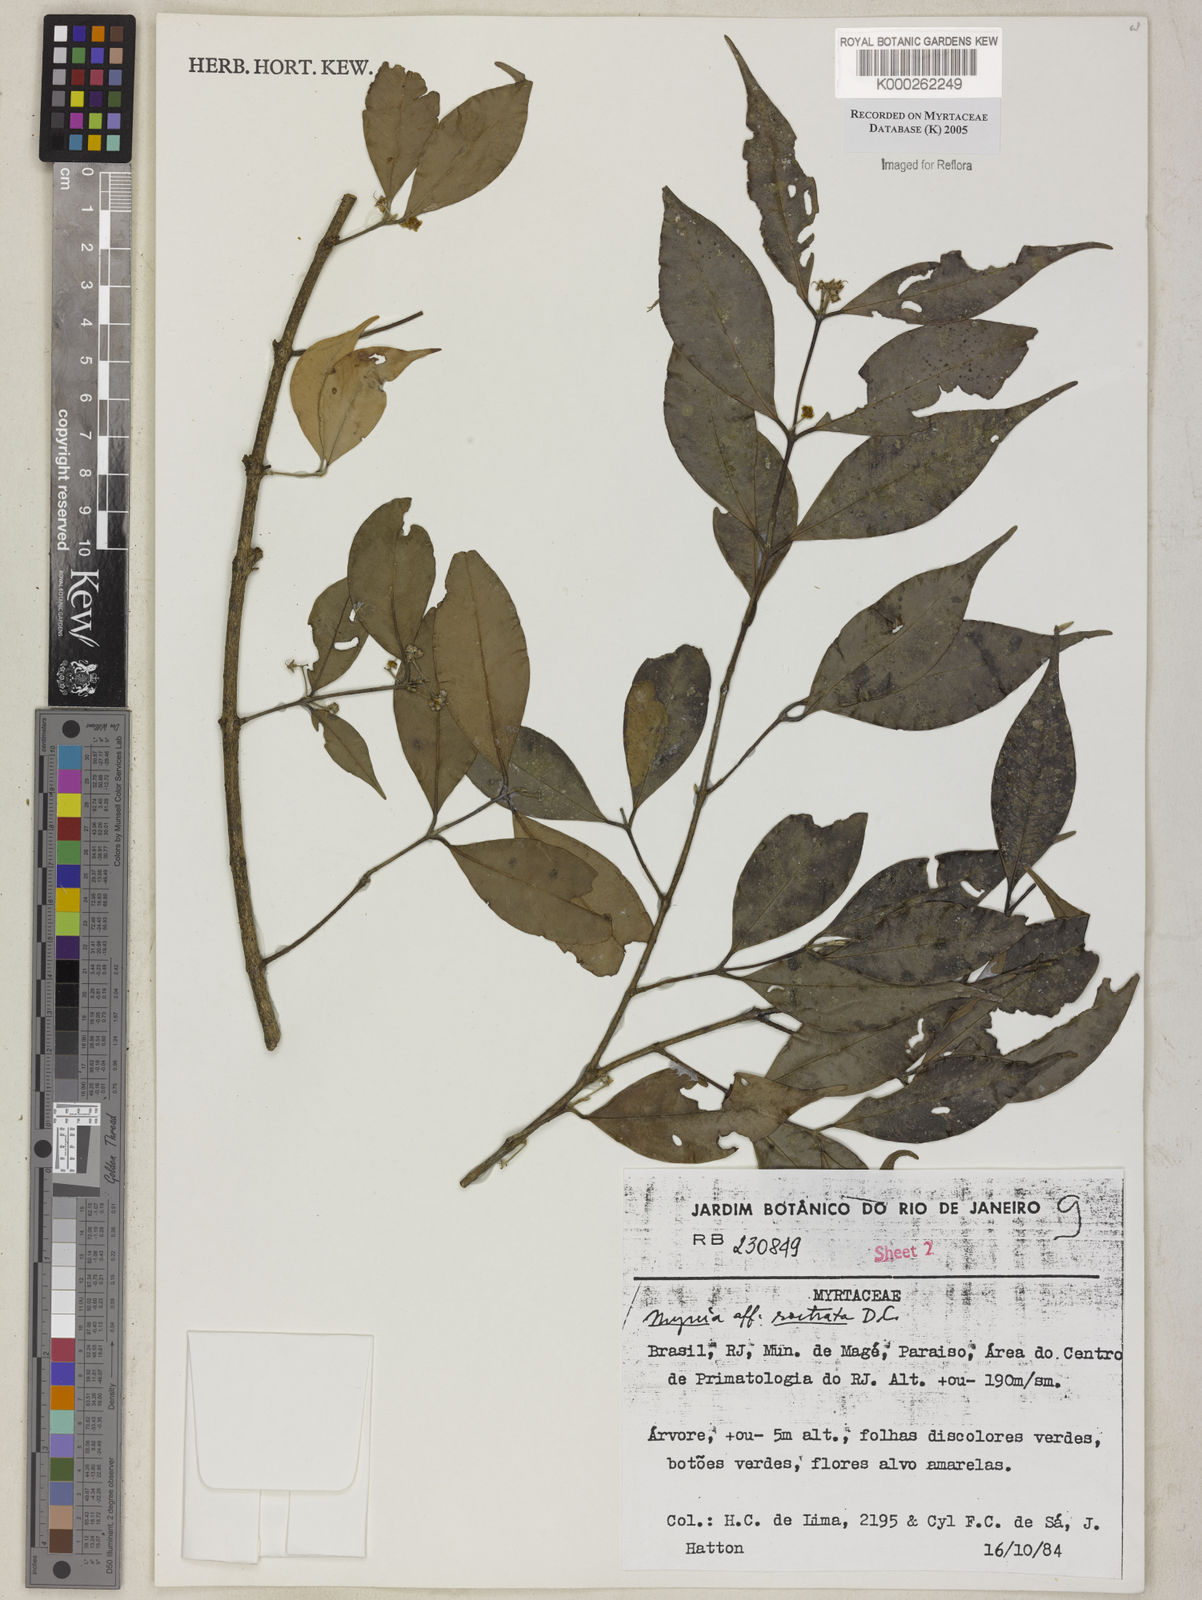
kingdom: Plantae
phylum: Tracheophyta
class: Magnoliopsida
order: Myrtales
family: Myrtaceae
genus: Myrcia
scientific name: Myrcia splendens
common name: Surinam cherry
